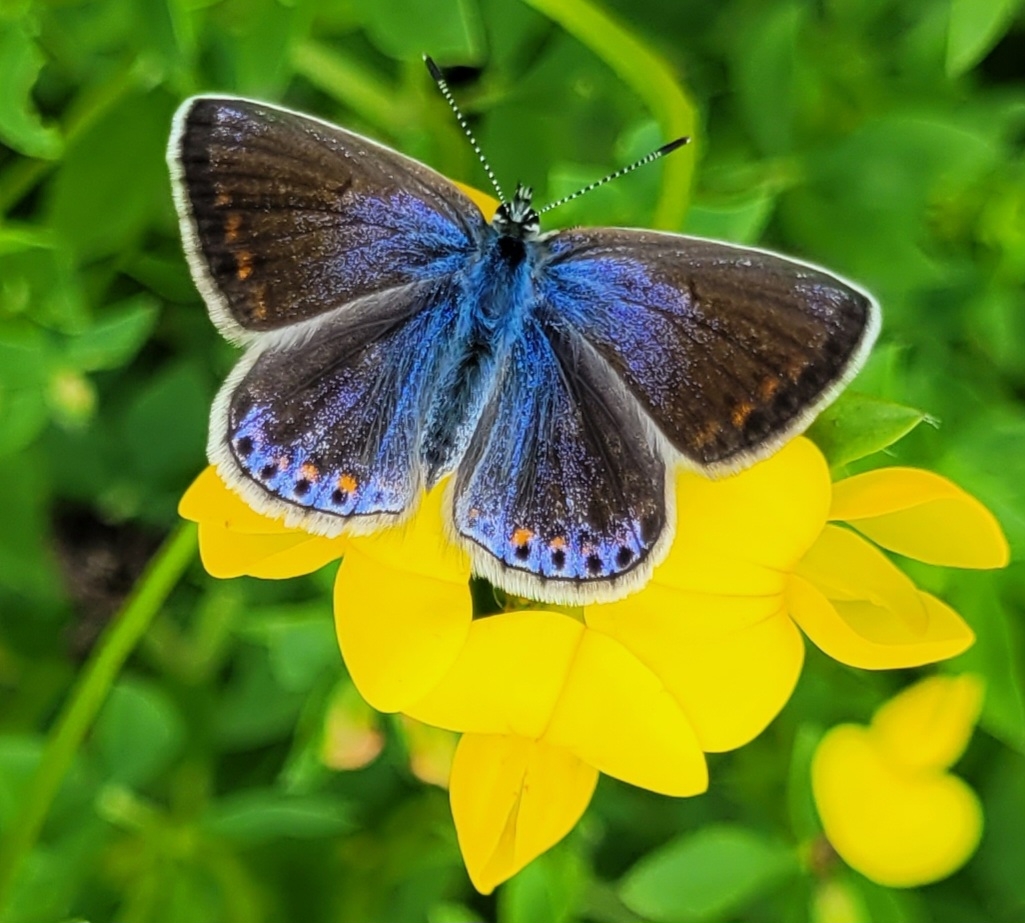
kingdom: Animalia
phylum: Arthropoda
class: Insecta
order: Lepidoptera
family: Lycaenidae
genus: Polyommatus
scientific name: Polyommatus icarus
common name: Almindelig blåfugl
